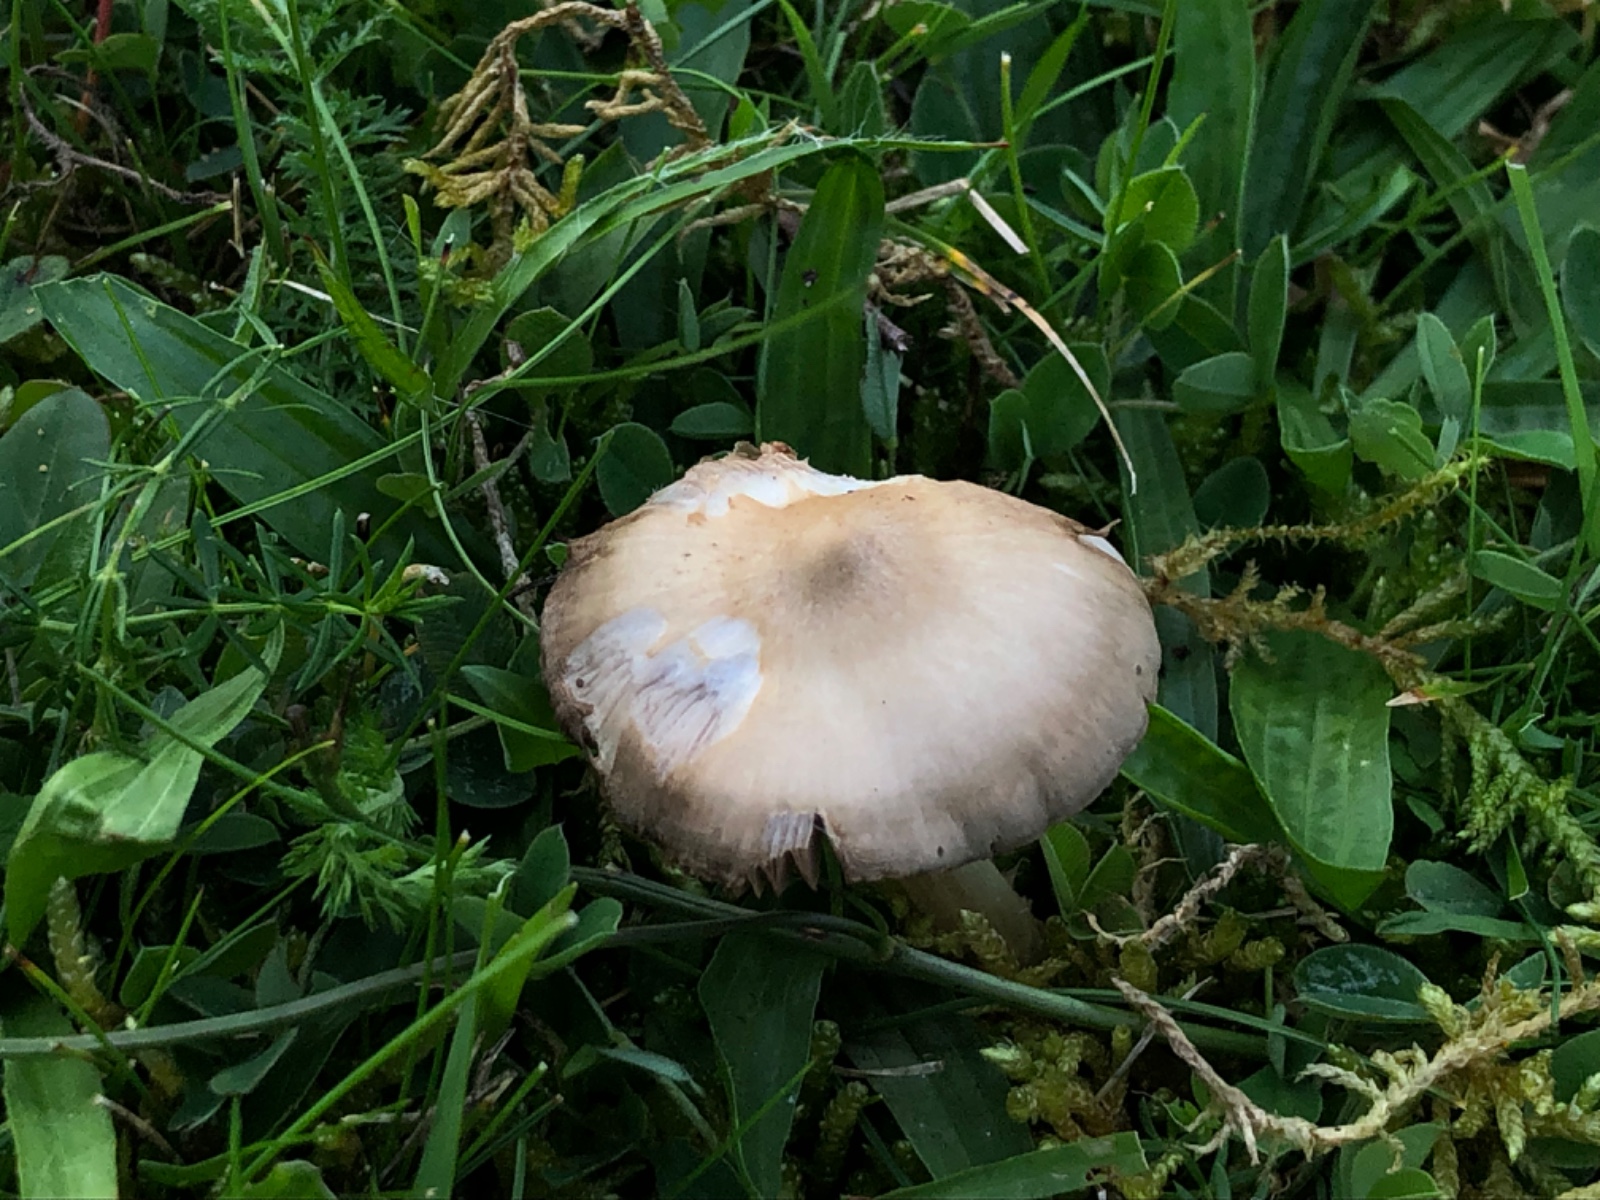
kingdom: Fungi
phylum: Basidiomycota
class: Agaricomycetes
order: Agaricales
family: Entolomataceae
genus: Entoloma
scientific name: Entoloma prunuloides
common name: mel-rødblad
